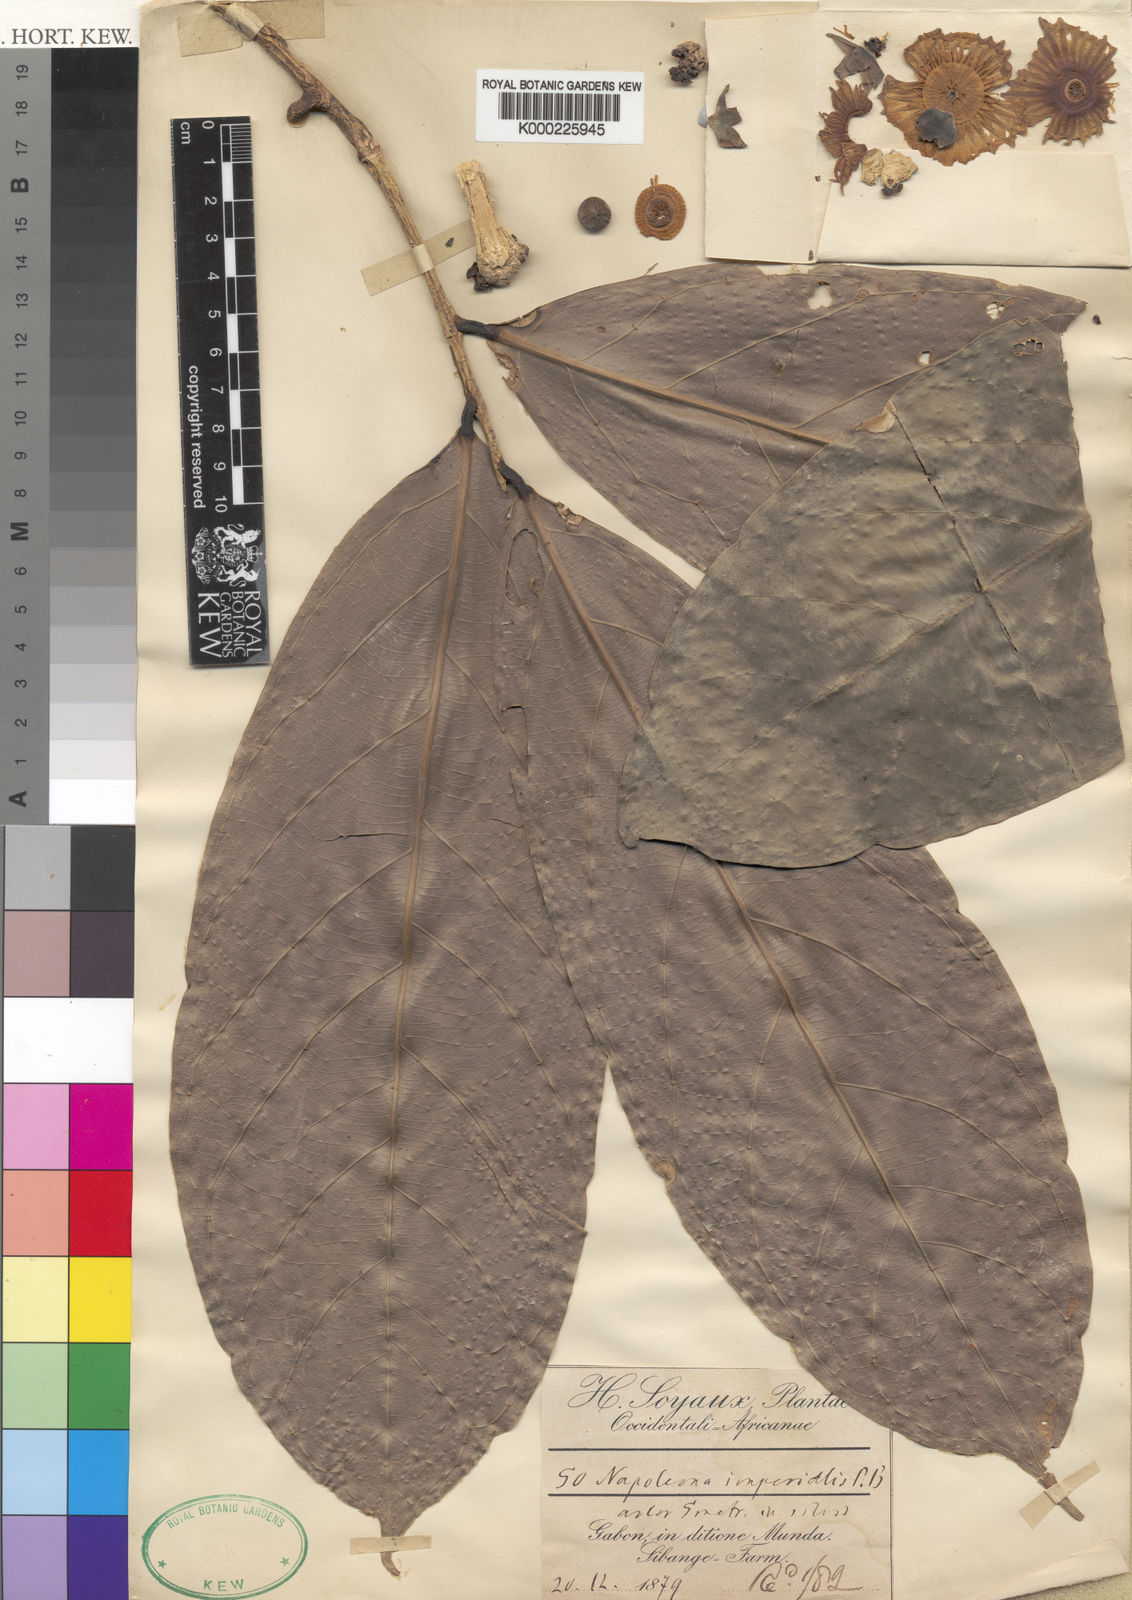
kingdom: Plantae
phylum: Tracheophyta
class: Magnoliopsida
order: Ericales
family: Lecythidaceae
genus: Napoleonaea
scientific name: Napoleonaea imperialis
